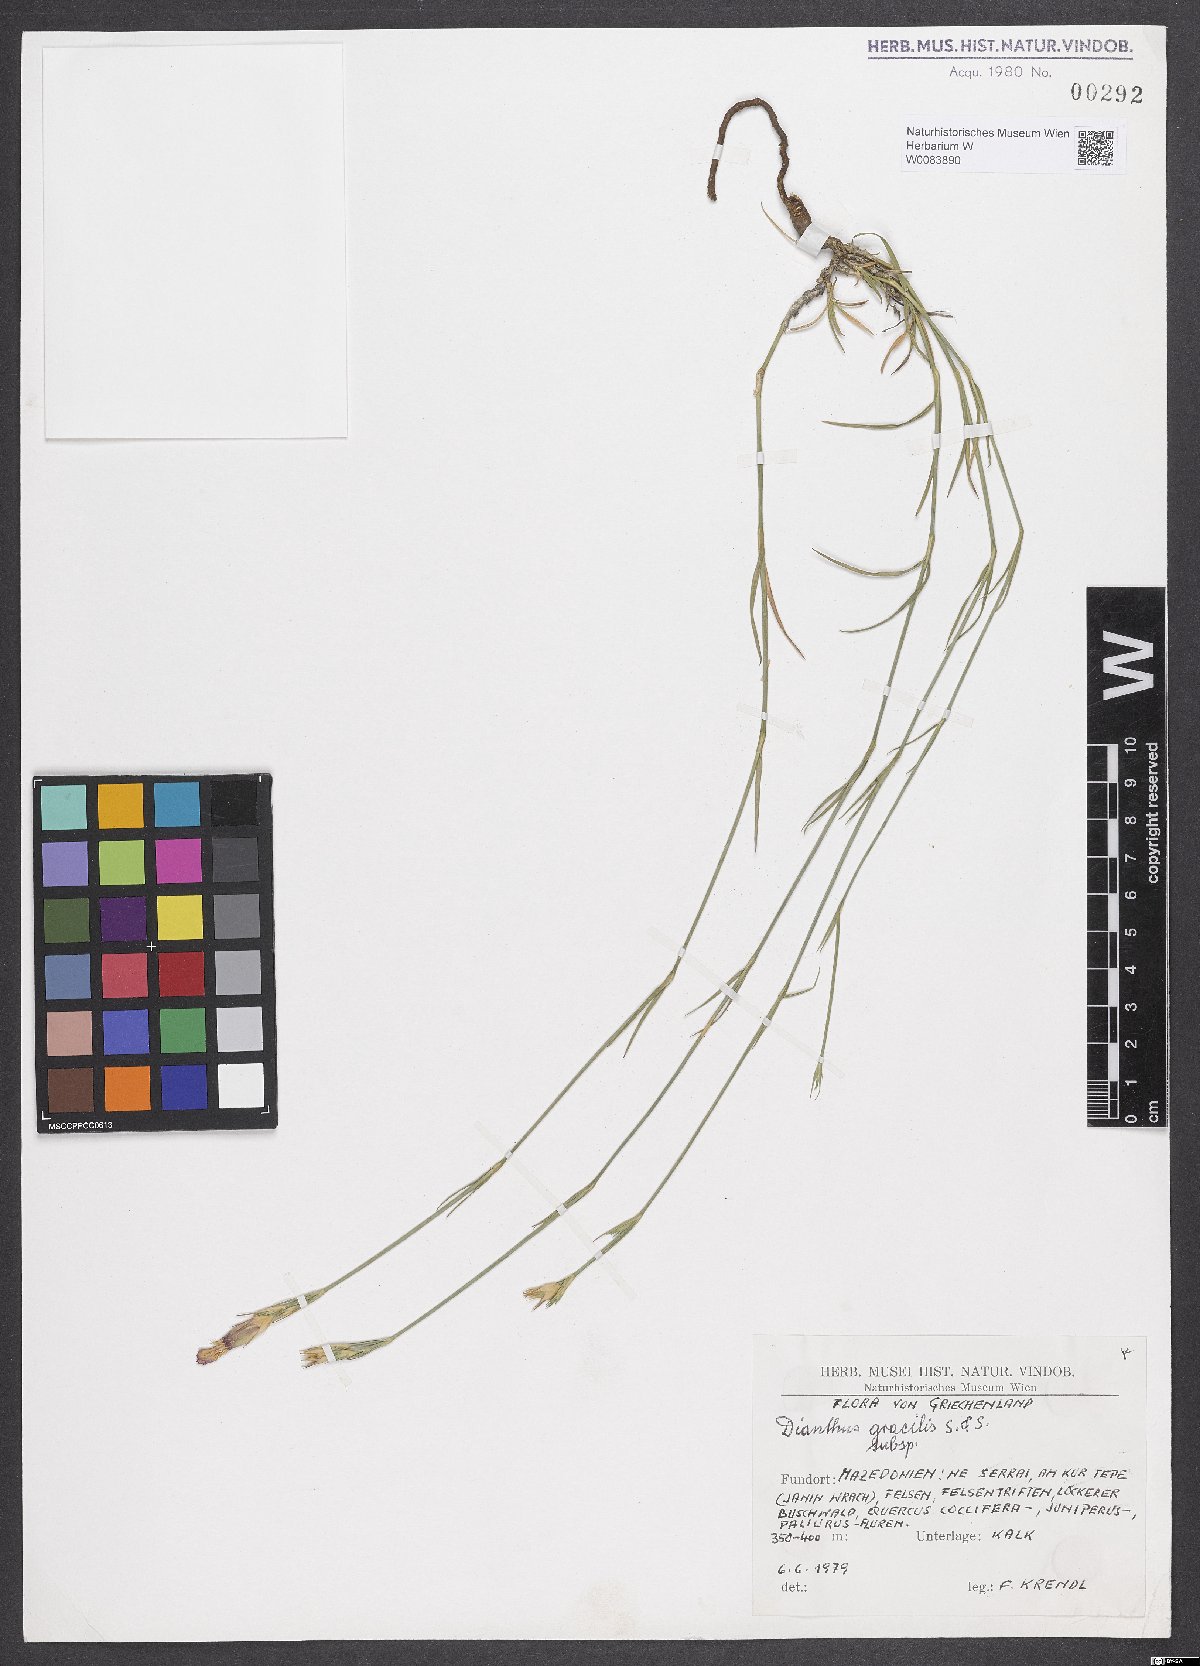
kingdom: Plantae
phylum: Tracheophyta
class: Magnoliopsida
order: Caryophyllales
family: Caryophyllaceae
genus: Dianthus
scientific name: Dianthus gracilis
